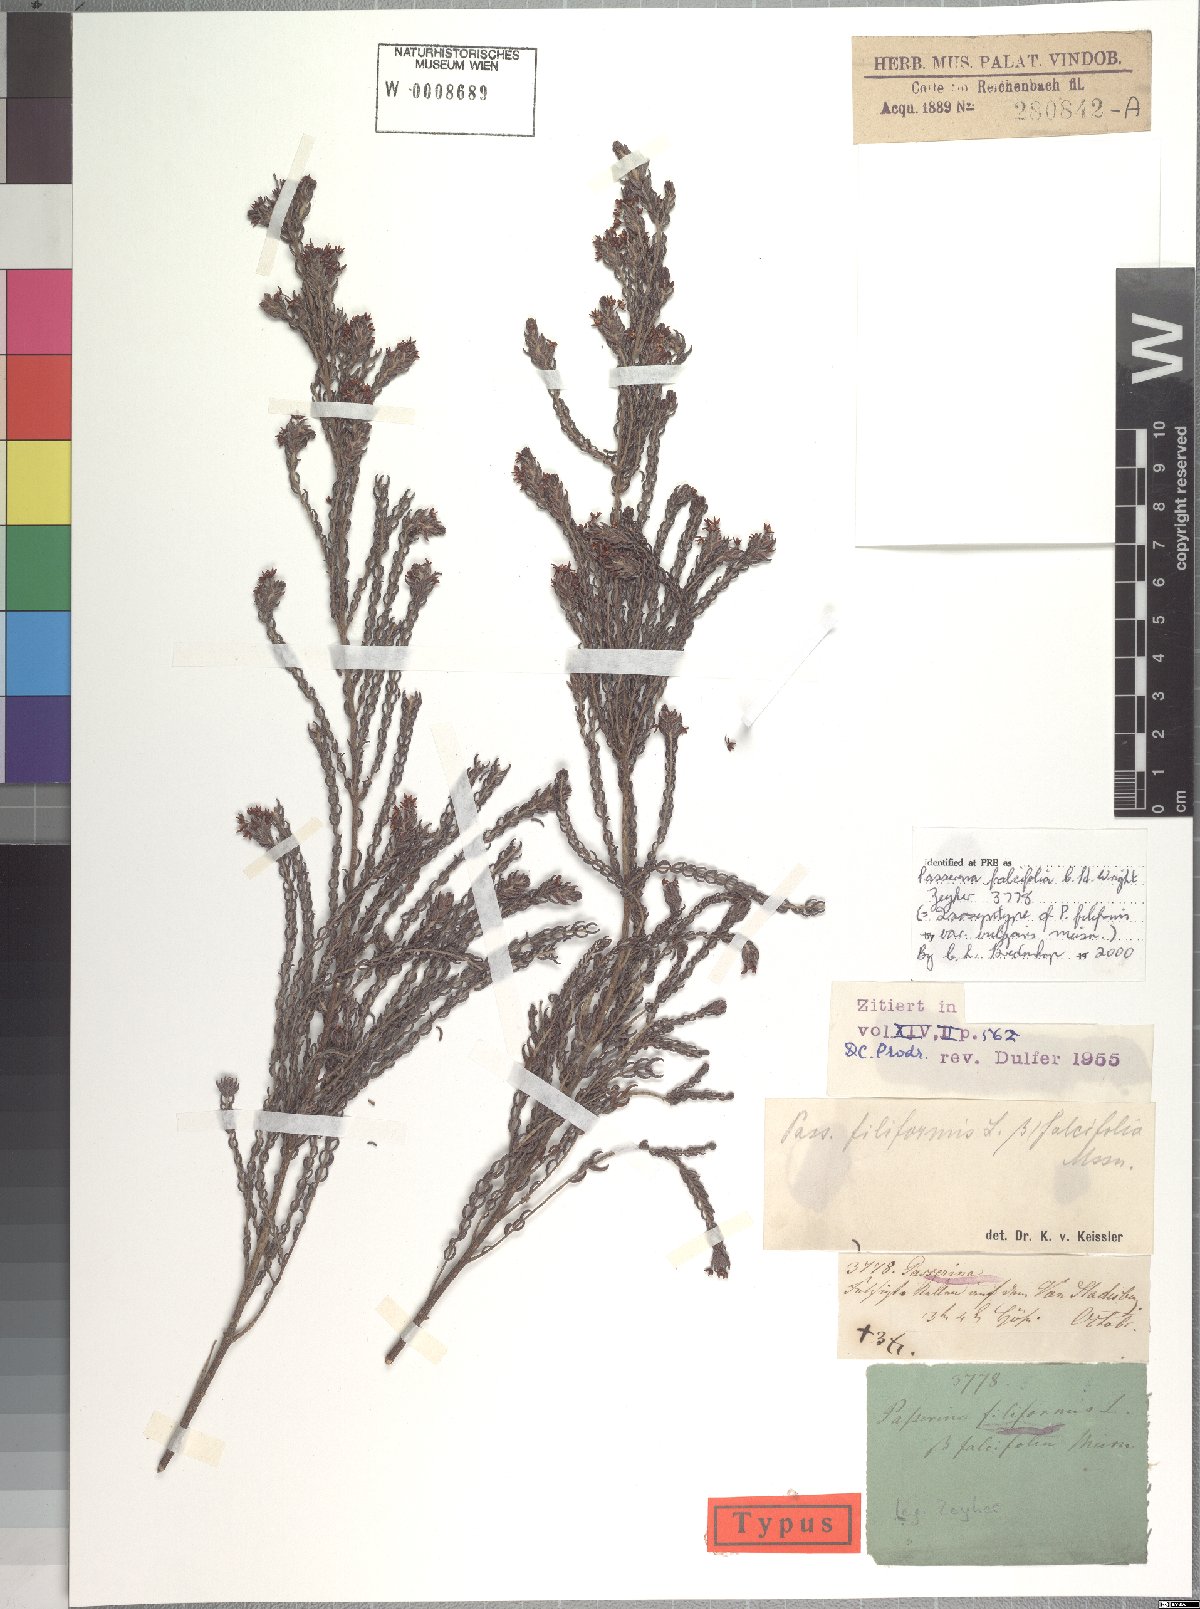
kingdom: Plantae
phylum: Tracheophyta
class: Magnoliopsida
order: Malvales
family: Thymelaeaceae
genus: Passerina
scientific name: Passerina falcifolia
